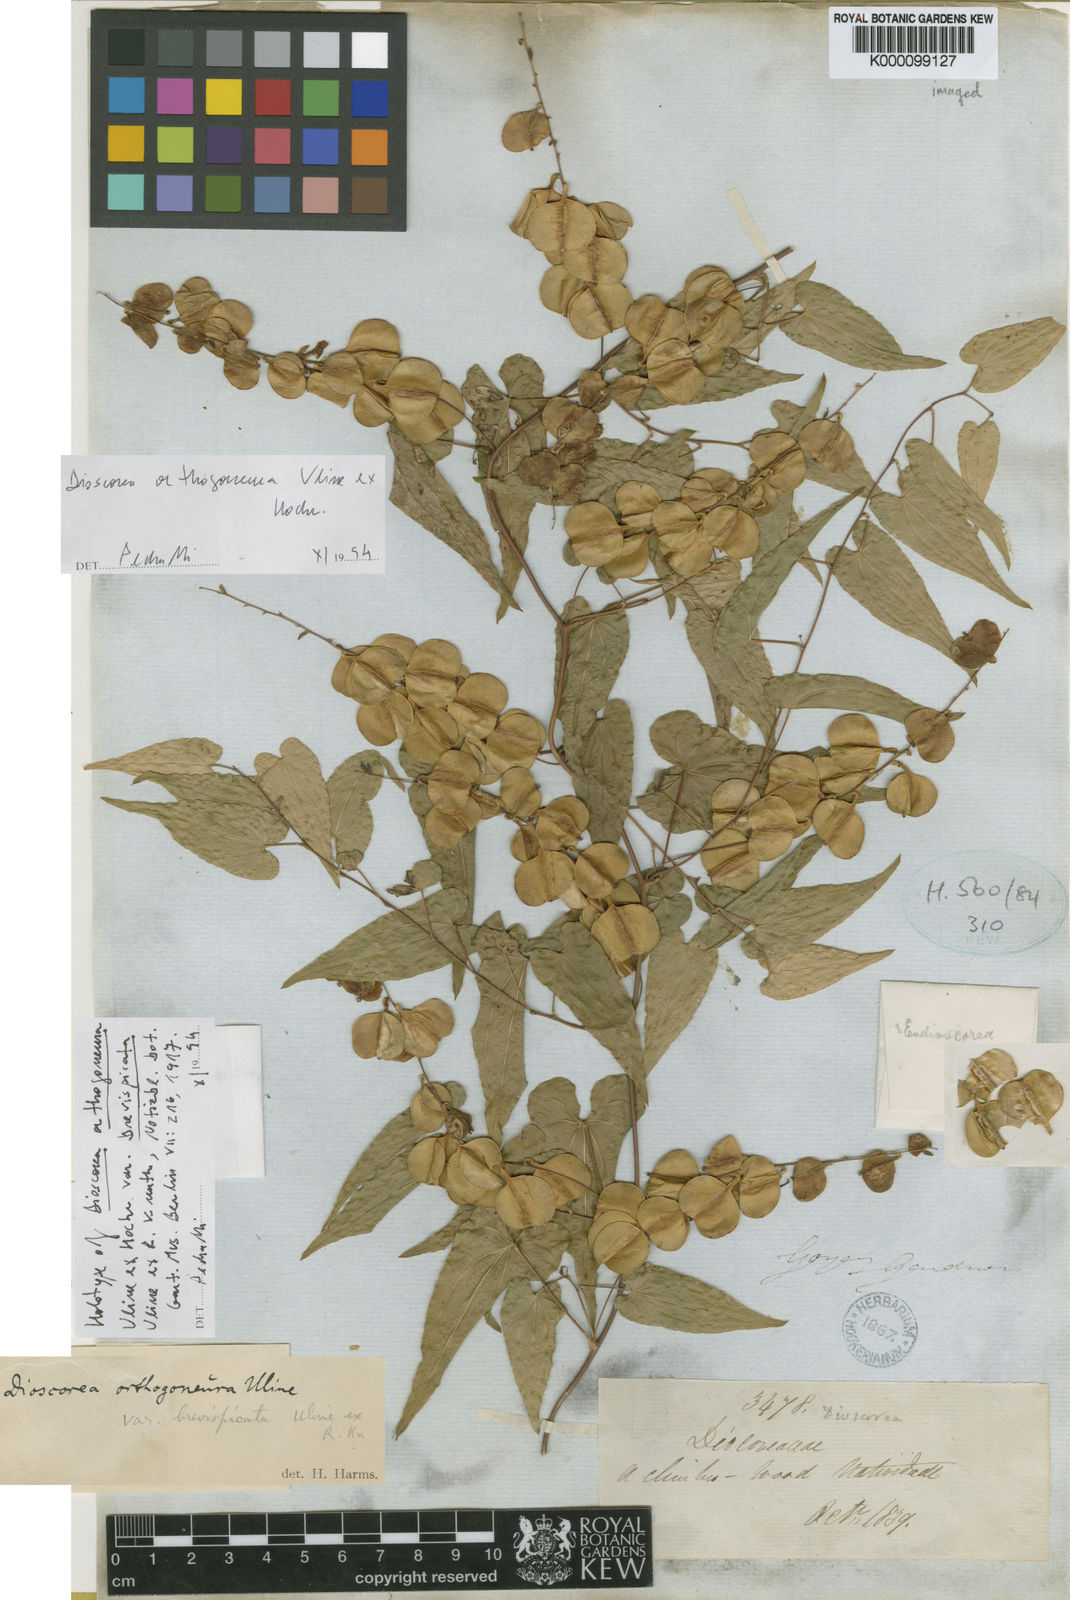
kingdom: Plantae
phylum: Tracheophyta
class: Liliopsida
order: Dioscoreales
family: Dioscoreaceae
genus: Dioscorea
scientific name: Dioscorea orthogoneura
